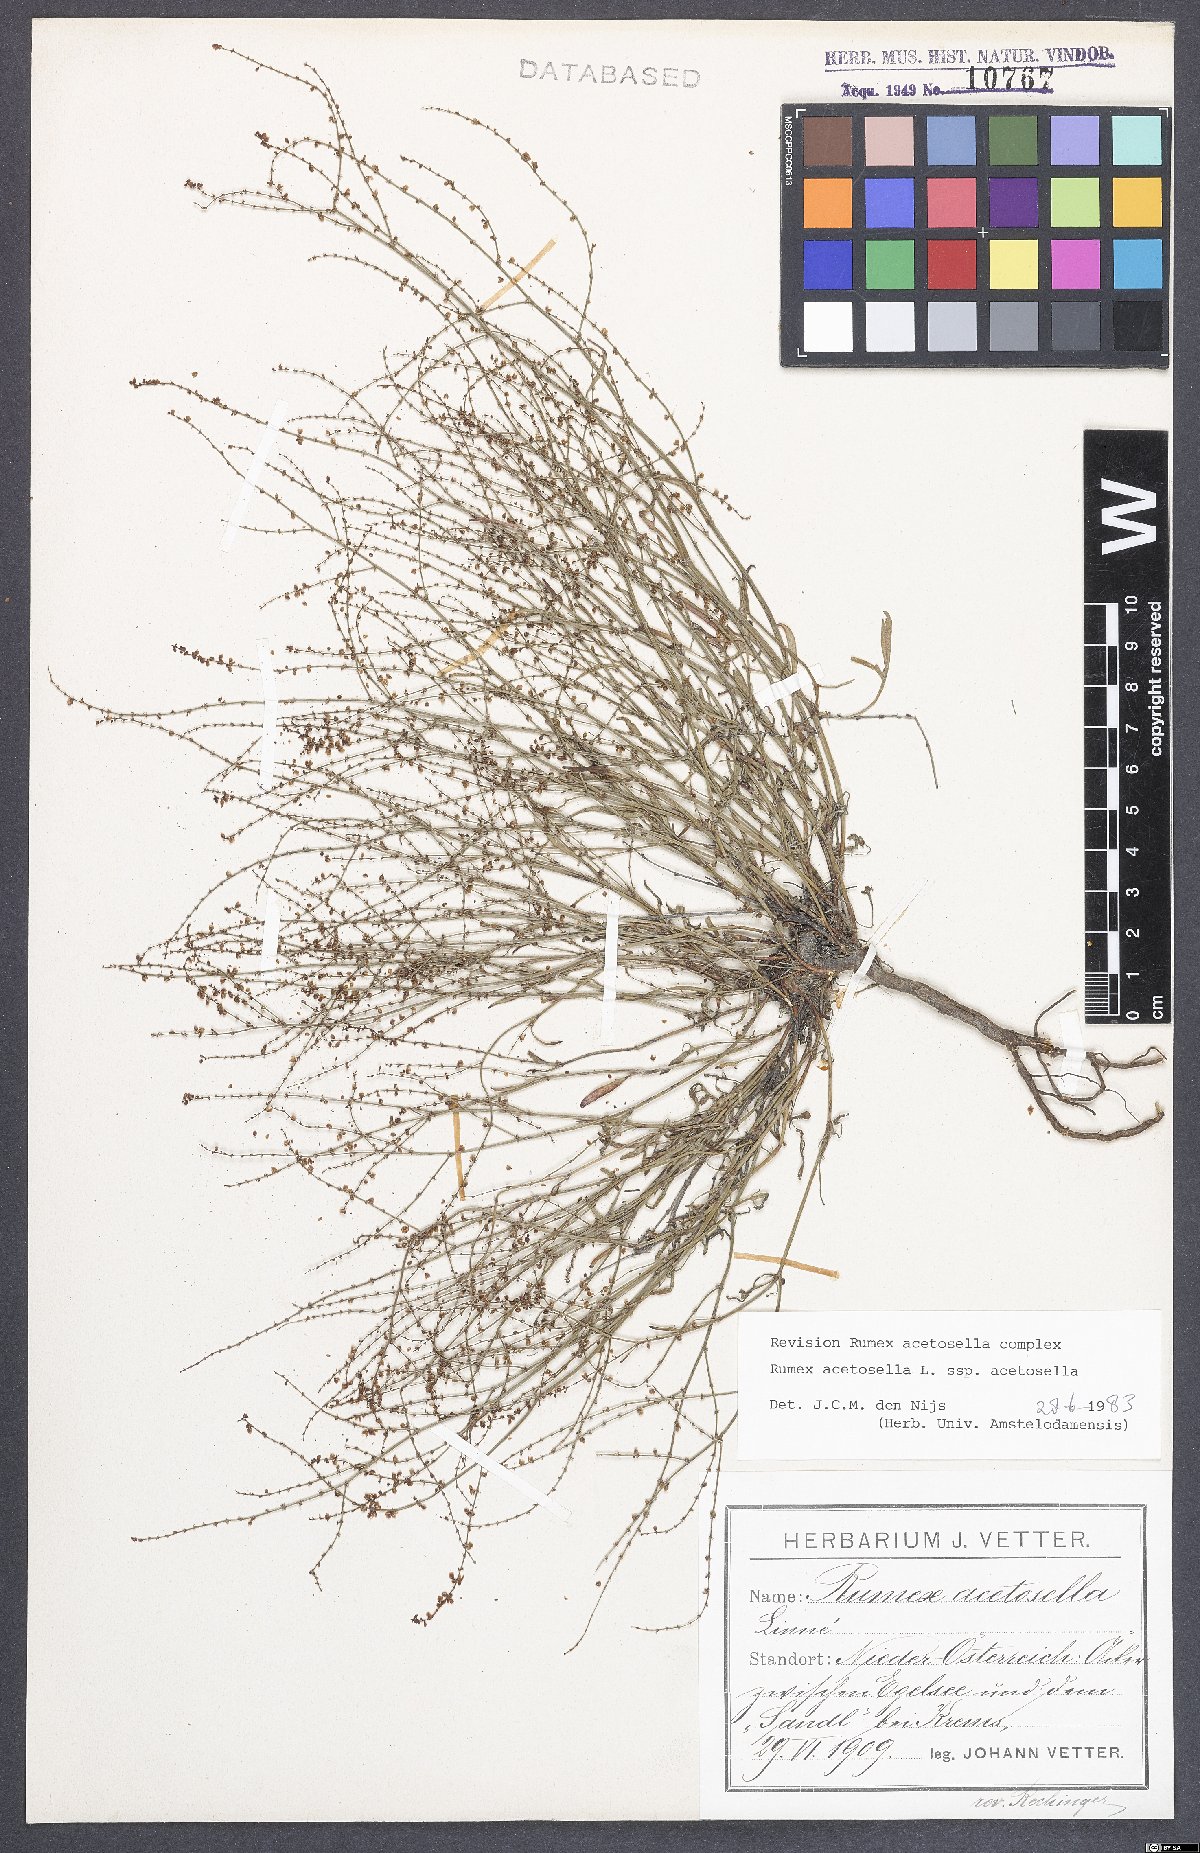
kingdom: Plantae
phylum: Tracheophyta
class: Magnoliopsida
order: Caryophyllales
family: Polygonaceae
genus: Rumex
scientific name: Rumex acetosella
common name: Common sheep sorrel
